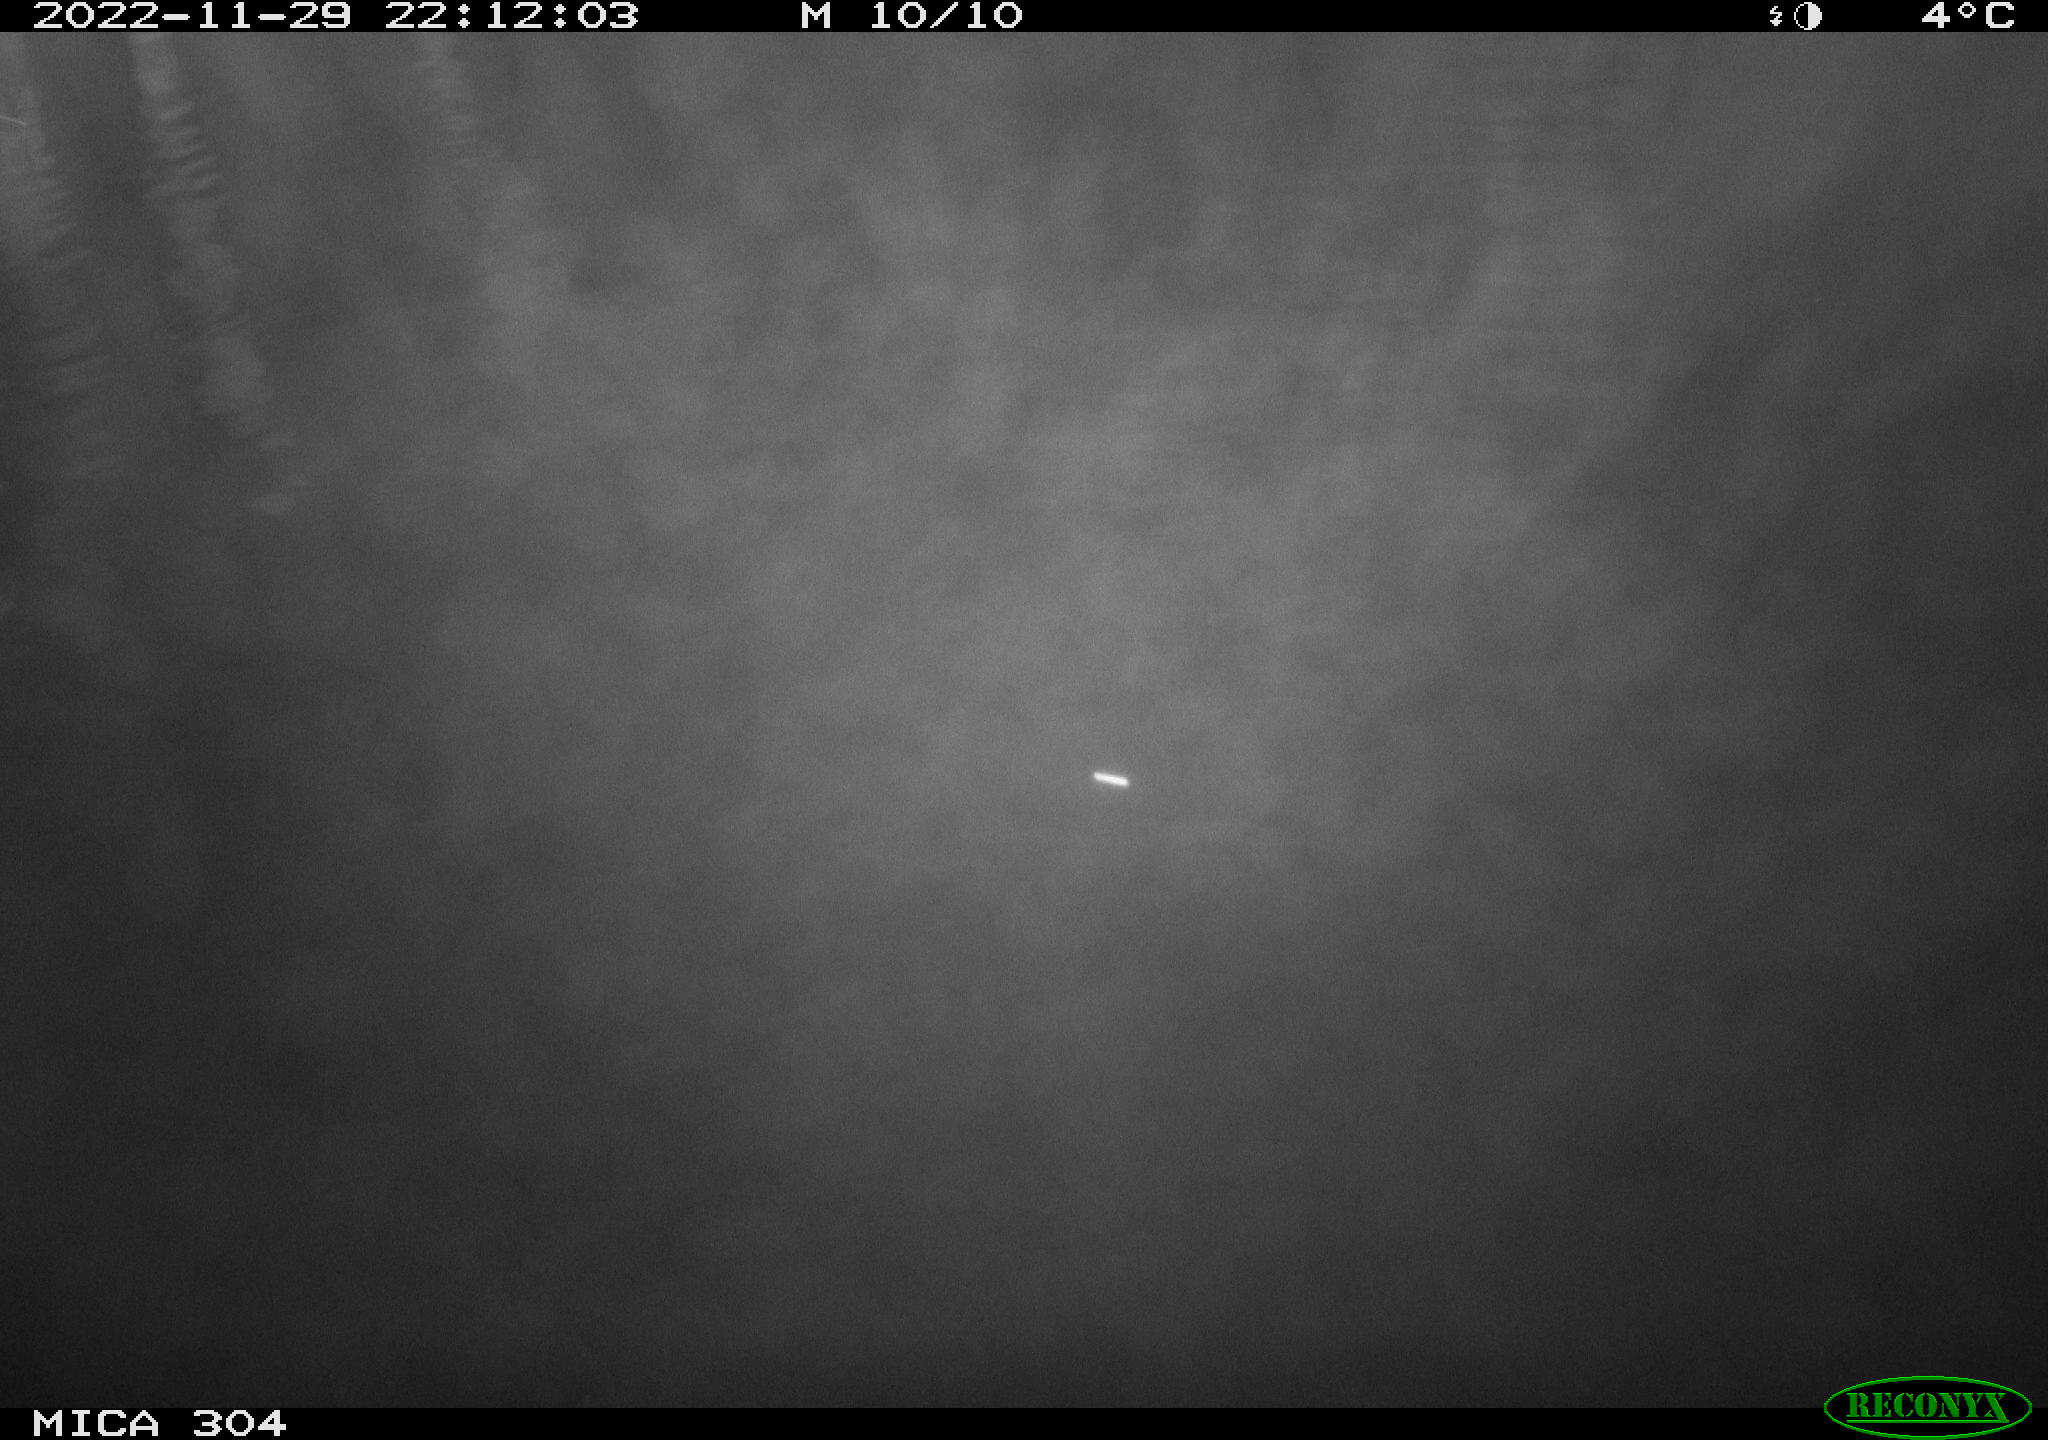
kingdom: Animalia
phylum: Chordata
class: Mammalia
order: Rodentia
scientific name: Rodentia
